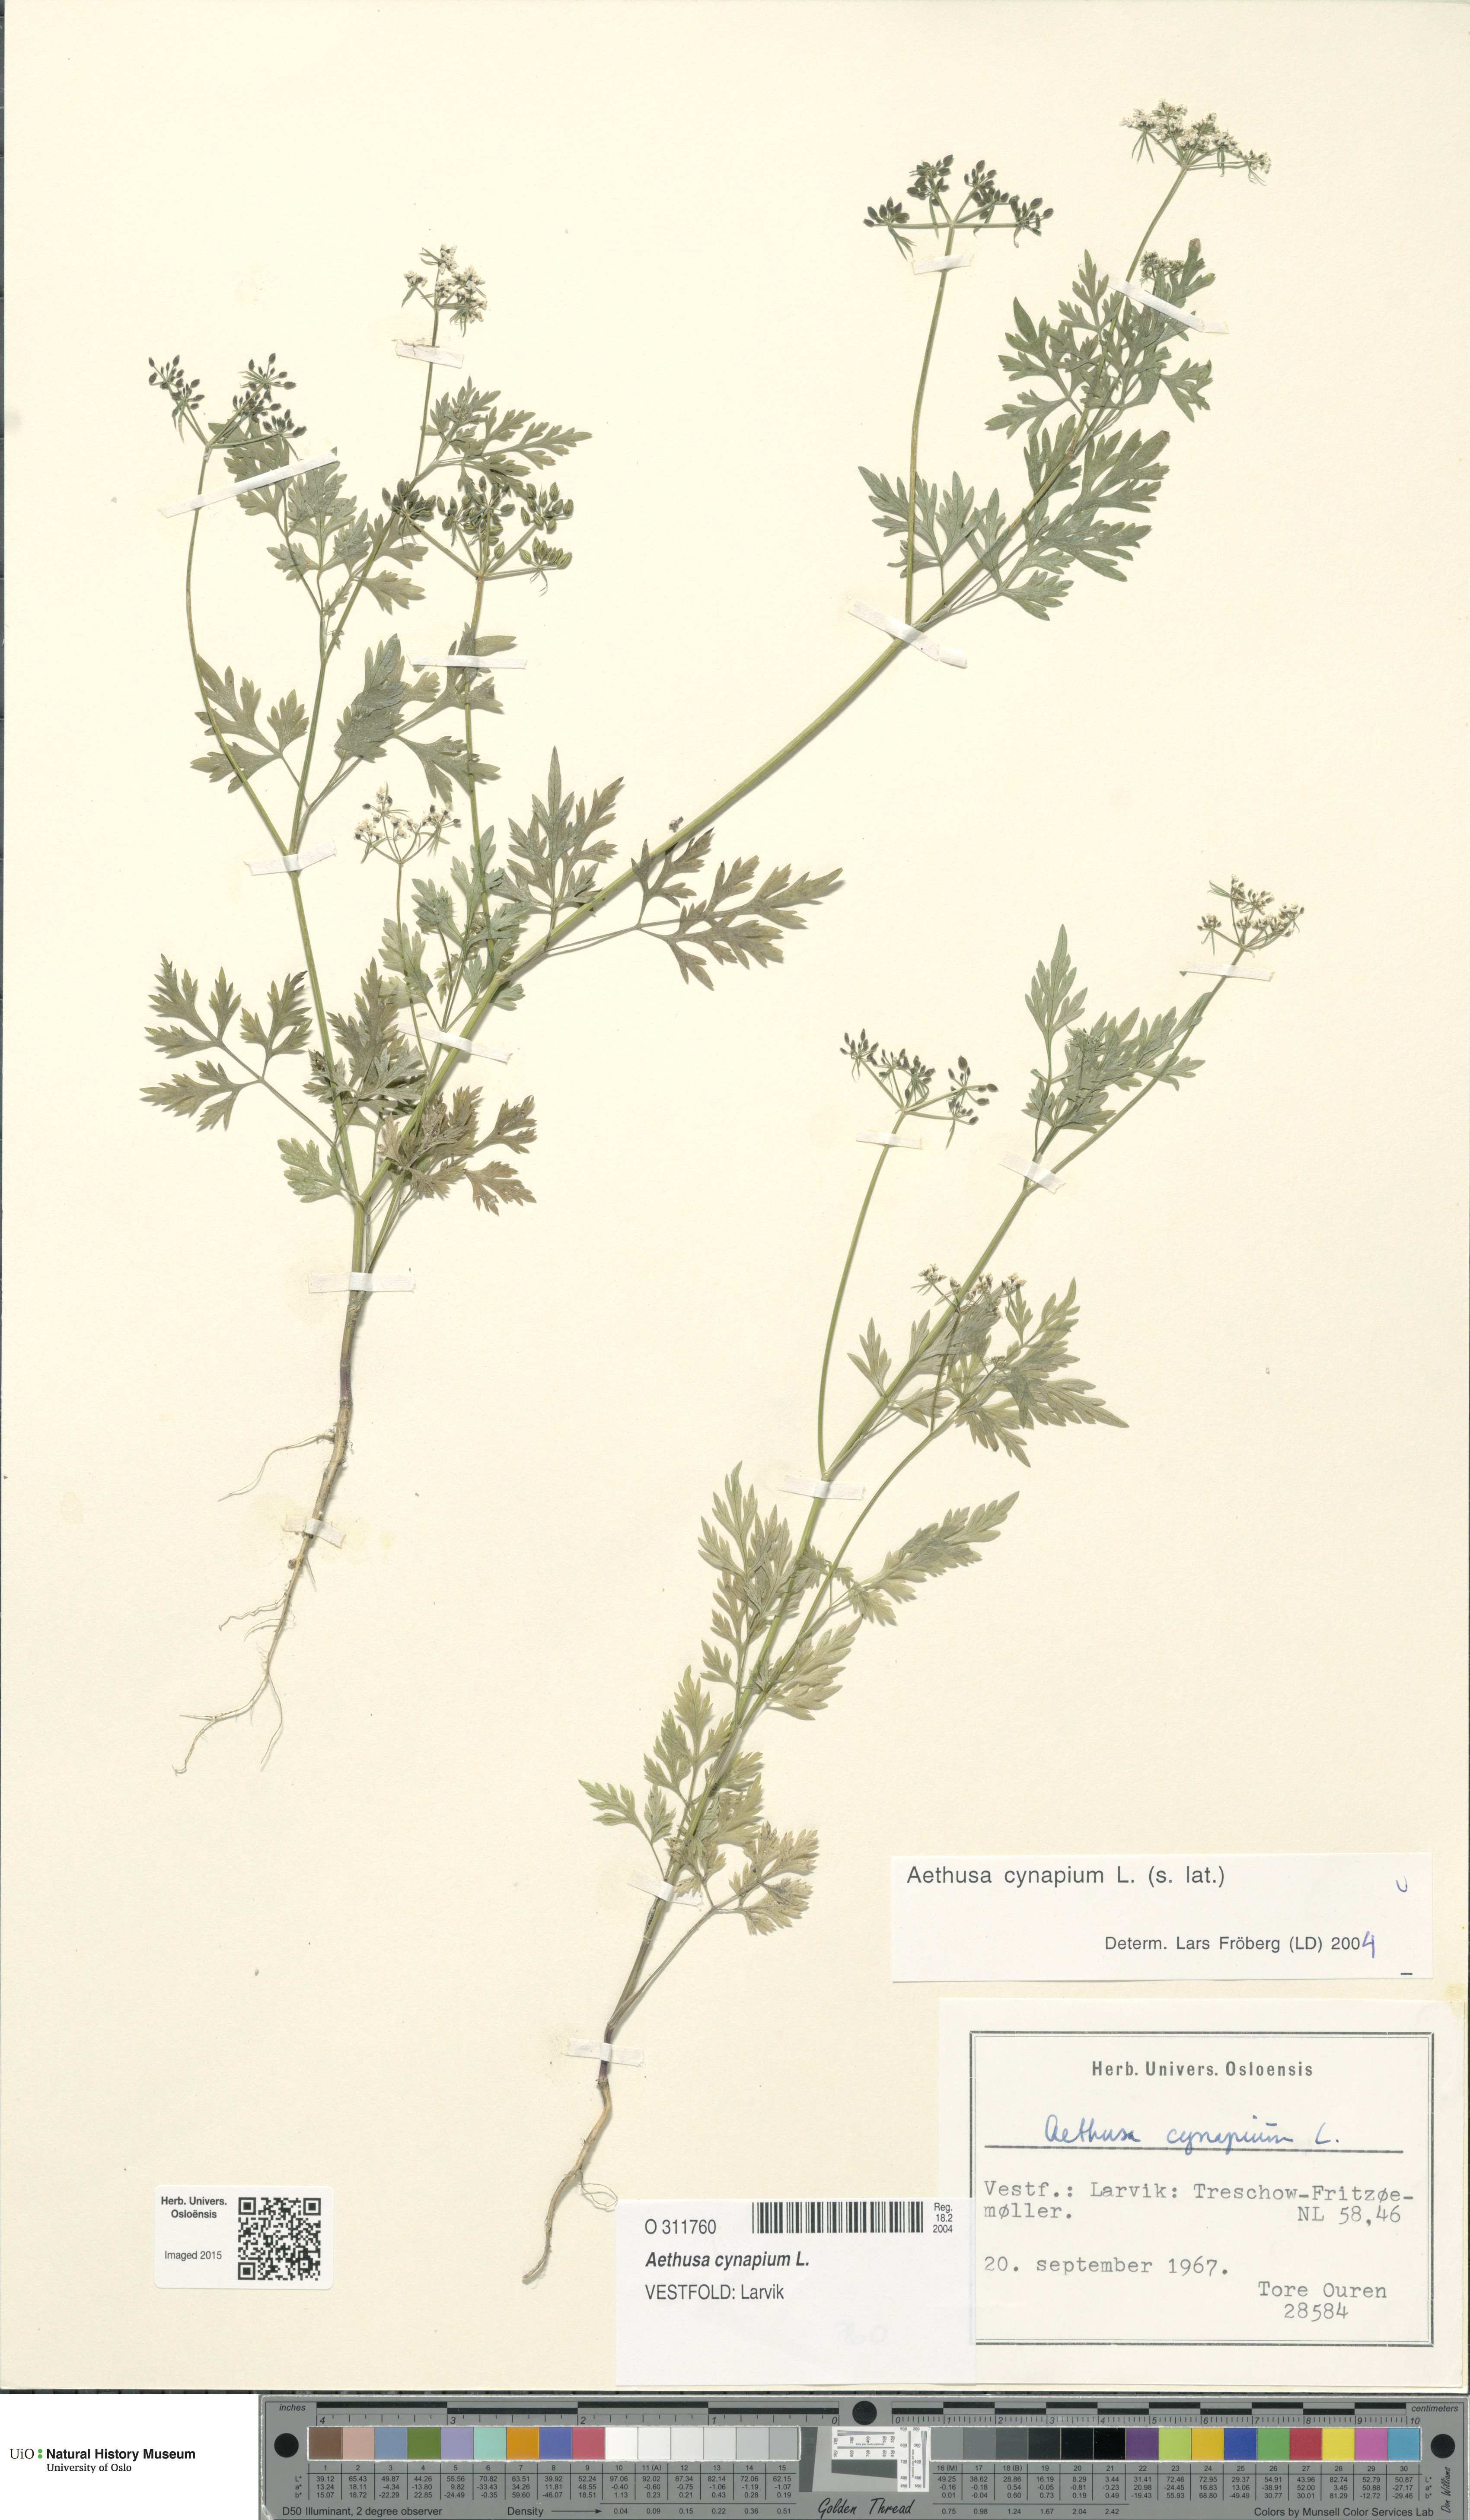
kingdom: Plantae
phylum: Tracheophyta
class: Magnoliopsida
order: Apiales
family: Apiaceae
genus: Aethusa
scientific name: Aethusa cynapium
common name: Fool's parsley
